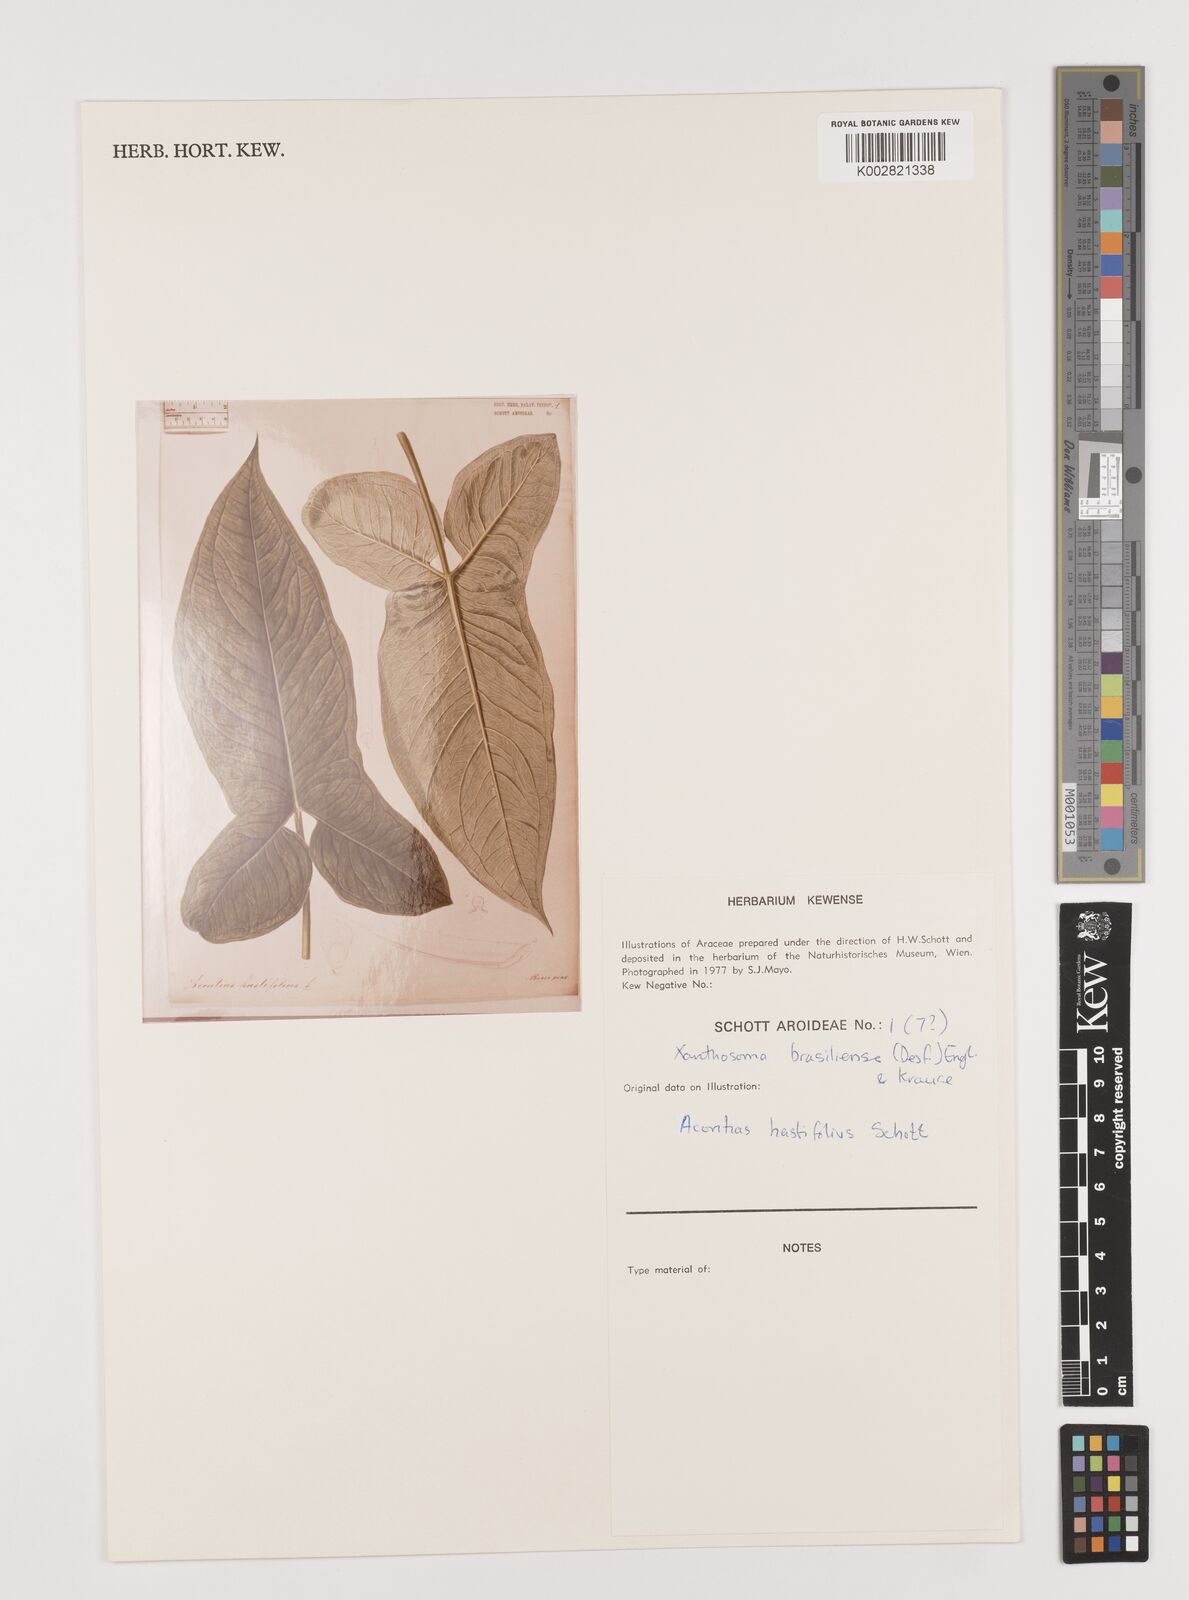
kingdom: Plantae
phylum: Tracheophyta
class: Liliopsida
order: Alismatales
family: Araceae
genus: Xanthosoma
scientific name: Xanthosoma brasiliense
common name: Tahitian-spinach
